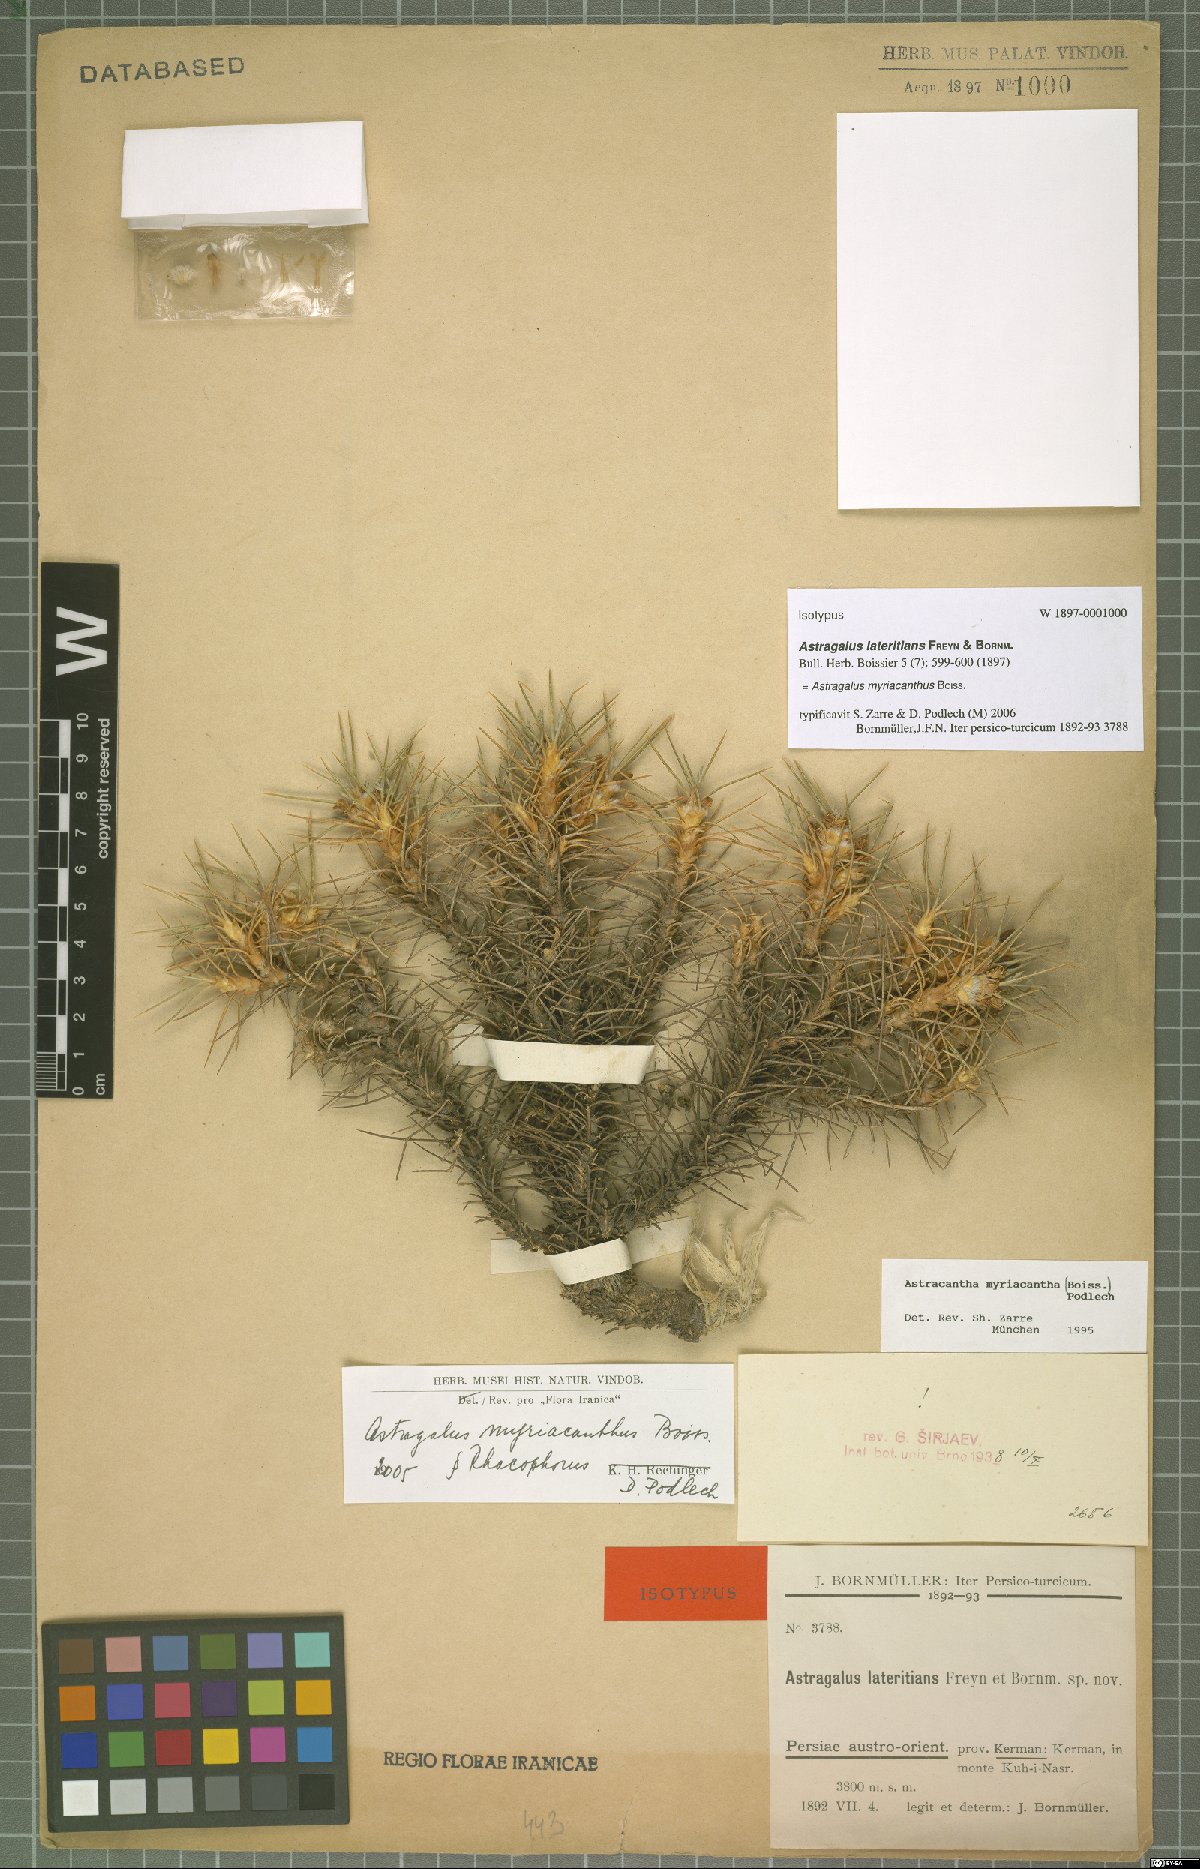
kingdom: Plantae
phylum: Tracheophyta
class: Magnoliopsida
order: Fabales
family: Fabaceae
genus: Astragalus
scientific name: Astragalus myriacanthus
